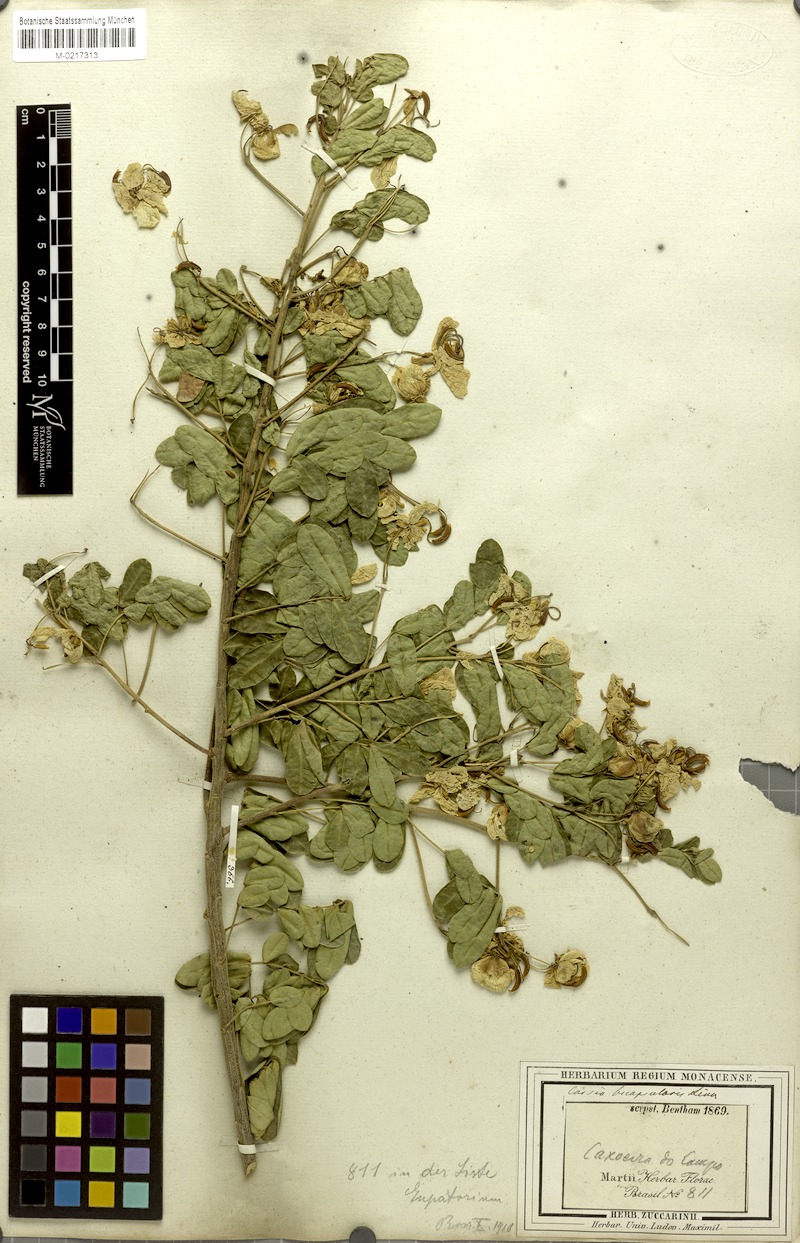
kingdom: Plantae
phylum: Tracheophyta
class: Magnoliopsida
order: Fabales
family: Fabaceae
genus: Senna
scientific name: Senna bicapsularis
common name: Christmasbush
